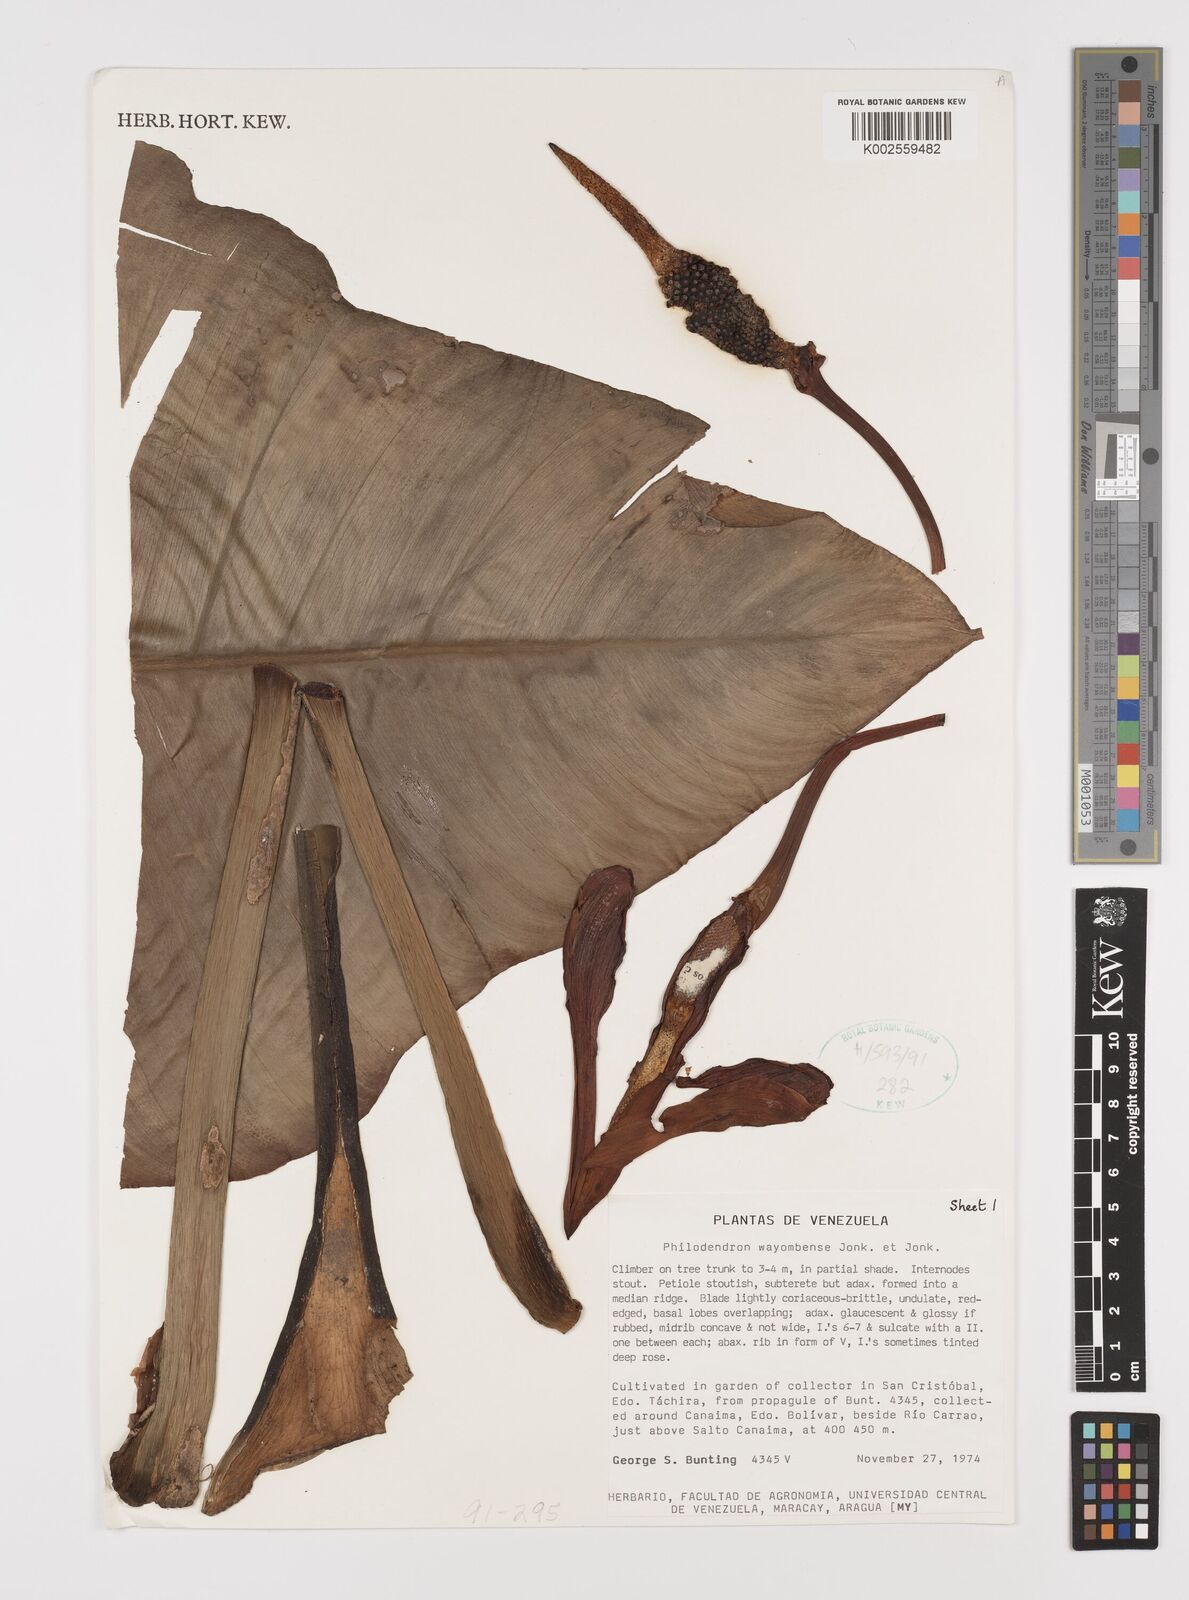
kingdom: Plantae
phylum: Tracheophyta
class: Liliopsida
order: Alismatales
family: Araceae
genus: Philodendron
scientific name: Philodendron bipennifolium
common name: Fiddle-leaf philodendron
